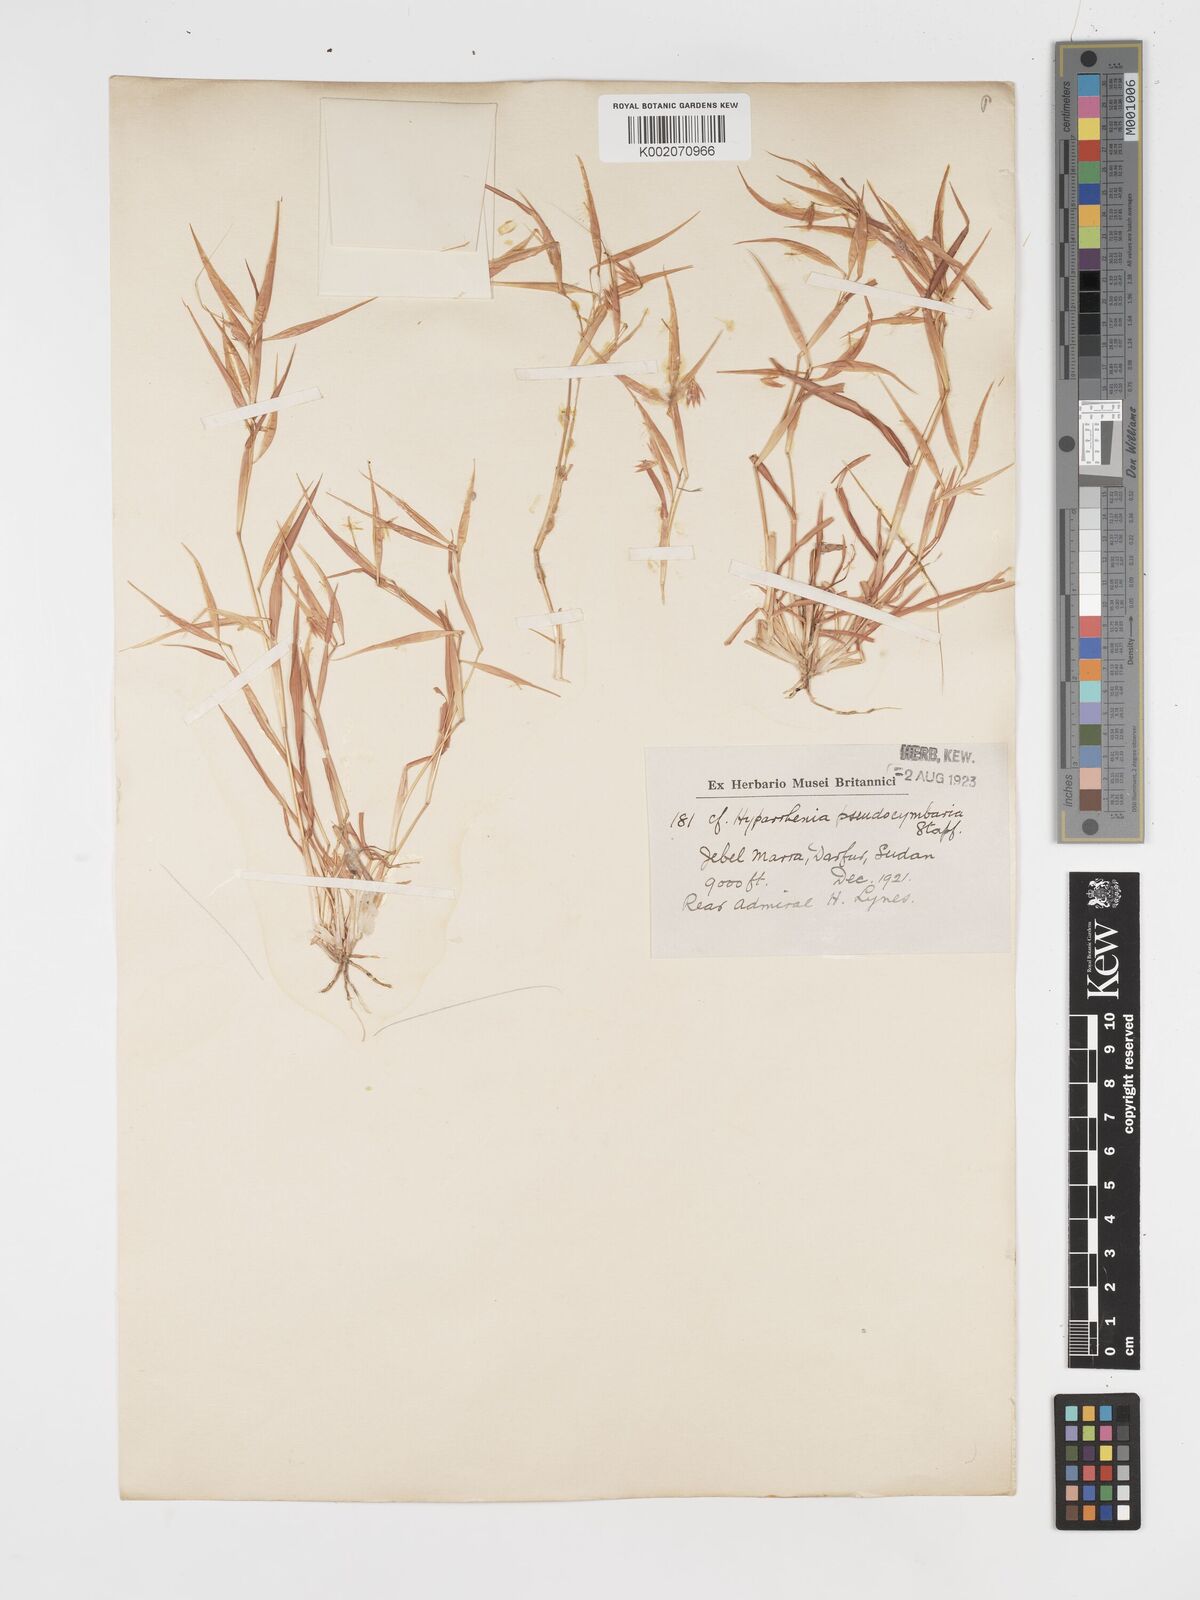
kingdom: Plantae
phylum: Tracheophyta
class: Liliopsida
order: Poales
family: Poaceae
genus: Hyparrhenia
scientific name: Hyparrhenia anthistirioides
